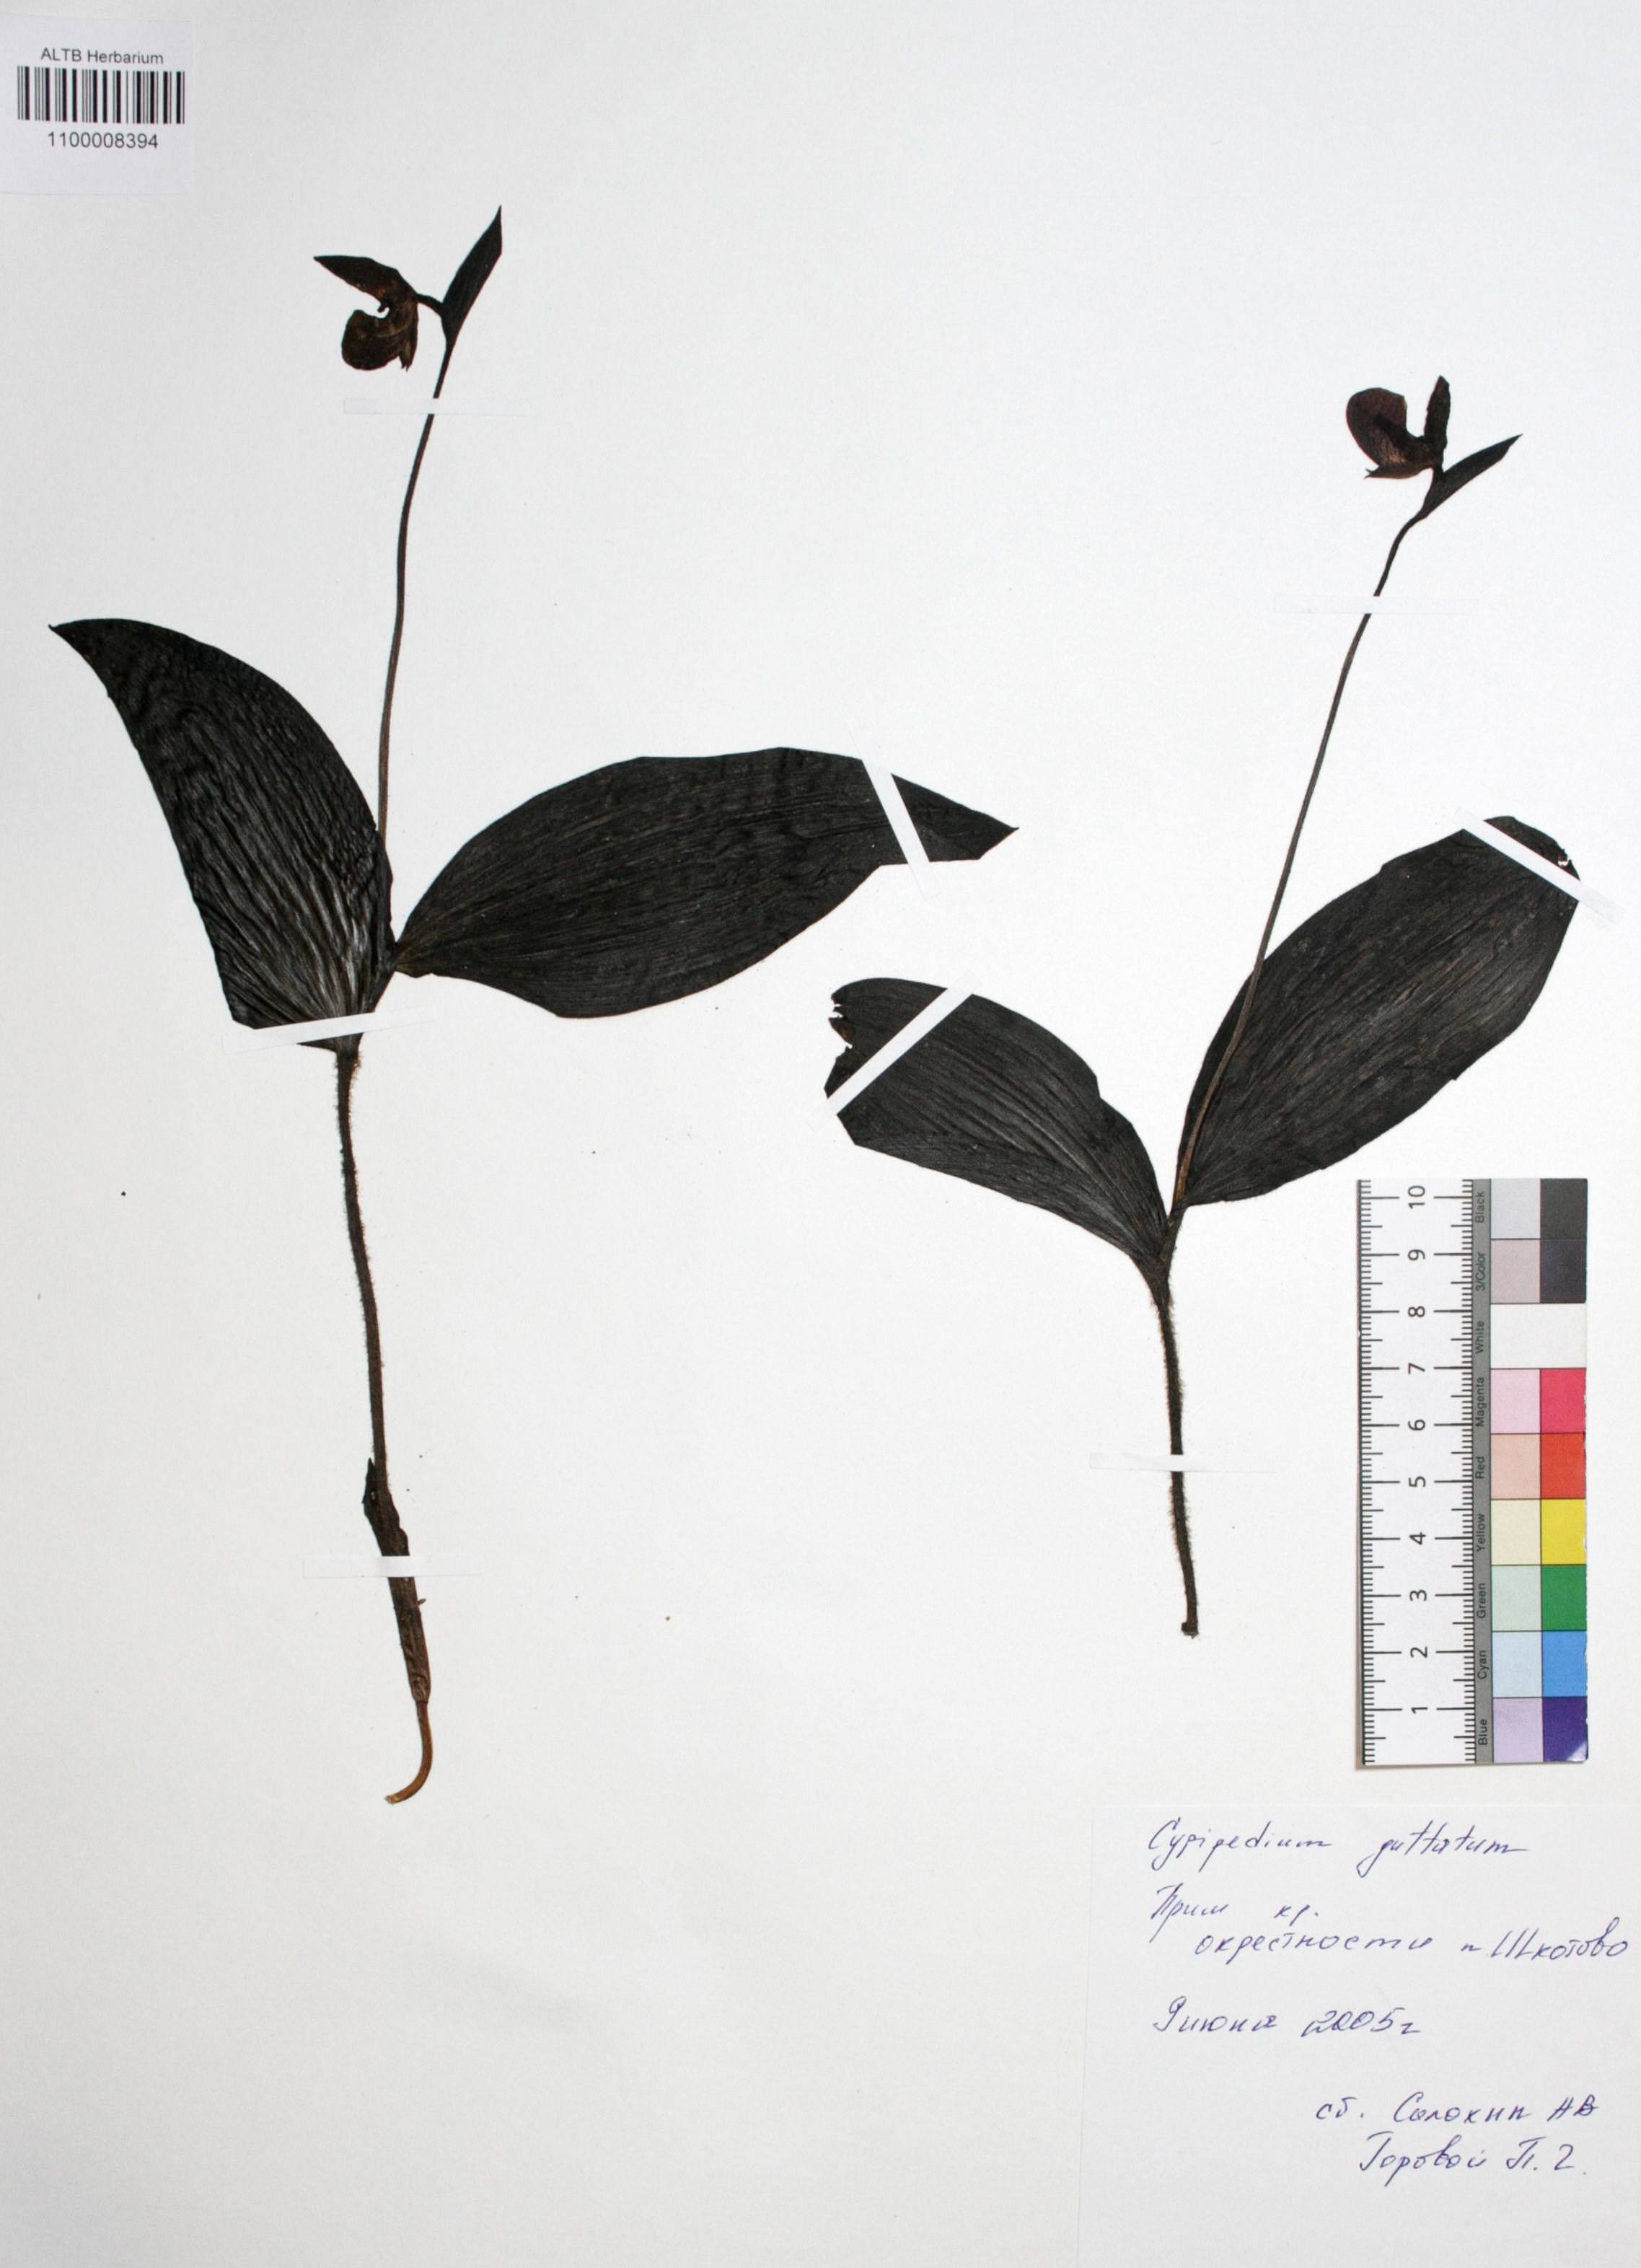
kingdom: Plantae
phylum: Tracheophyta
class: Liliopsida
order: Asparagales
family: Orchidaceae
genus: Cypripedium
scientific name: Cypripedium guttatum
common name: Pink lady slipper
